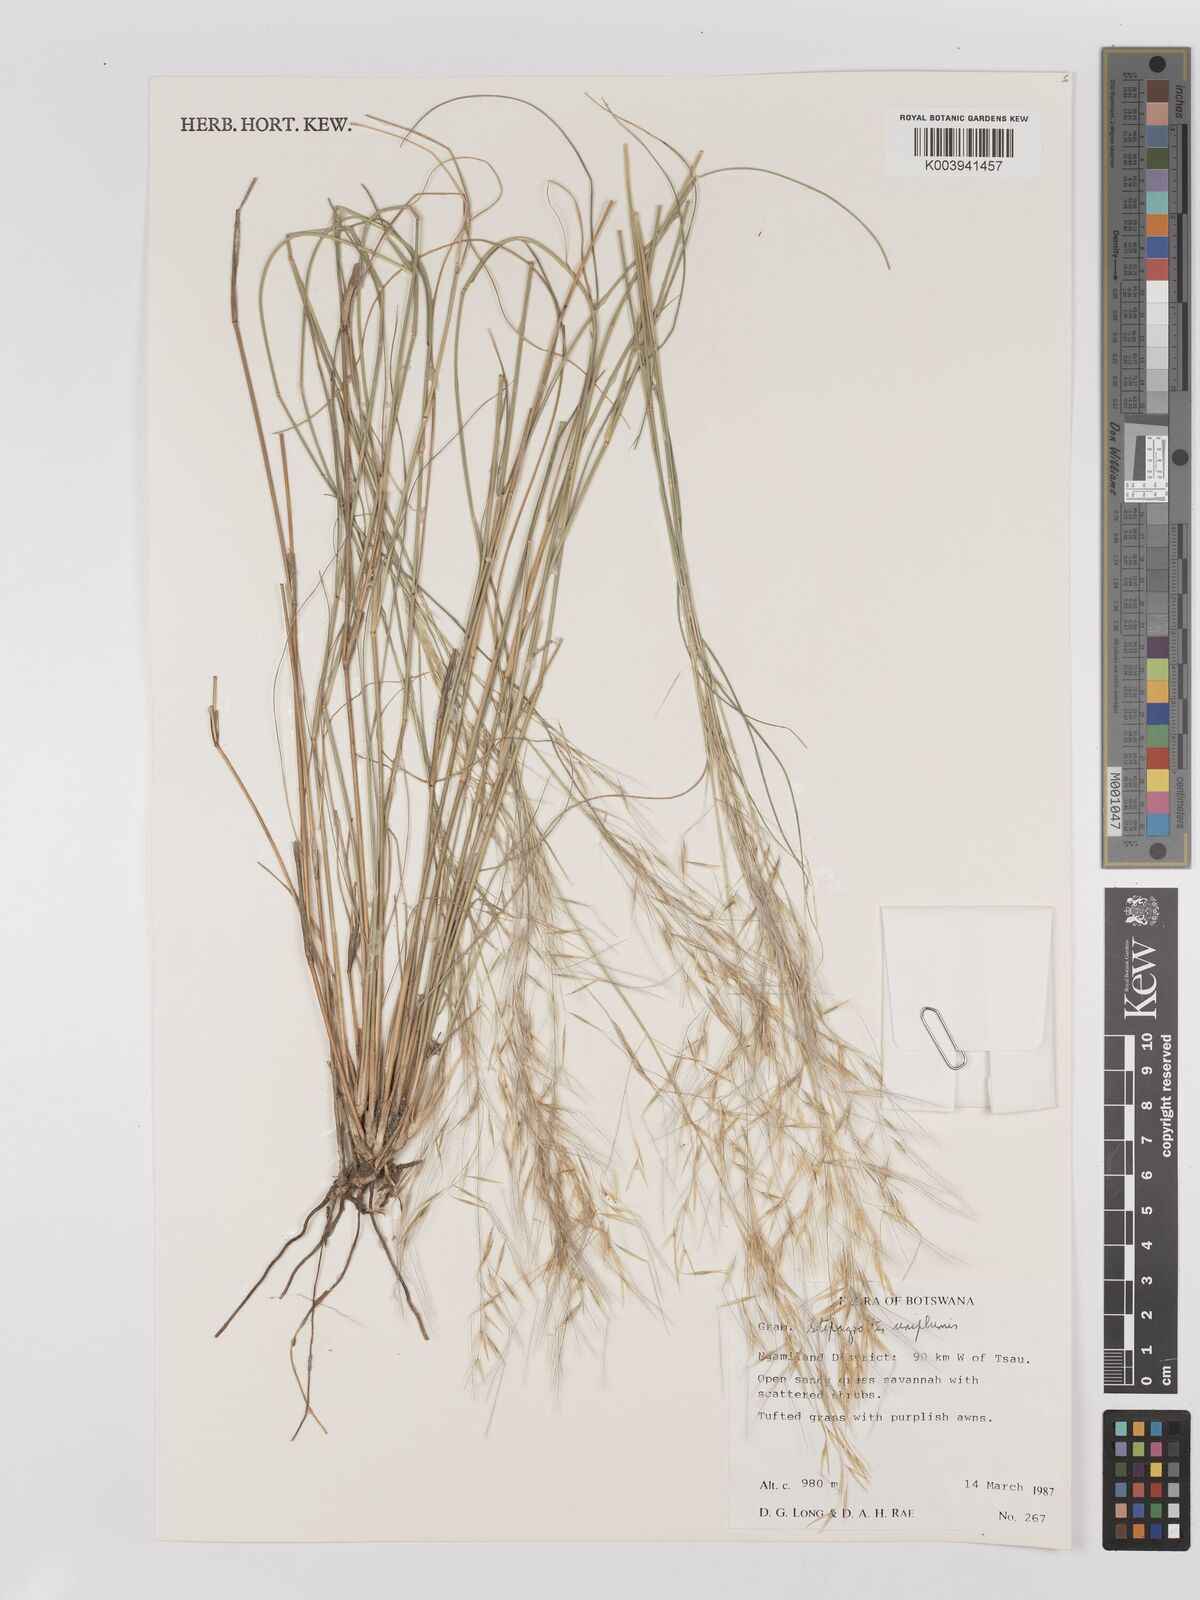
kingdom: Plantae
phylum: Tracheophyta
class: Liliopsida
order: Poales
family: Poaceae
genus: Stipagrostis
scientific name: Stipagrostis uniplumis
